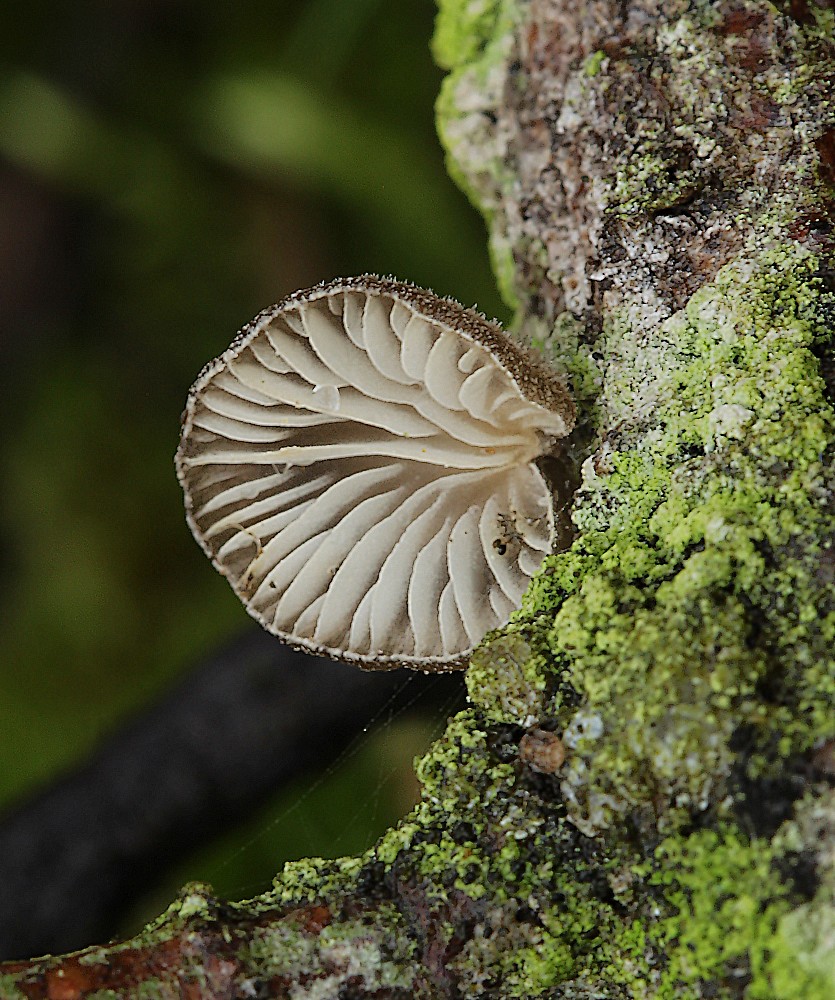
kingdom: Fungi
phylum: Basidiomycota
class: Agaricomycetes
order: Agaricales
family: Pleurotaceae
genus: Hohenbuehelia
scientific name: Hohenbuehelia atrocoerulea
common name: blålig filthat
